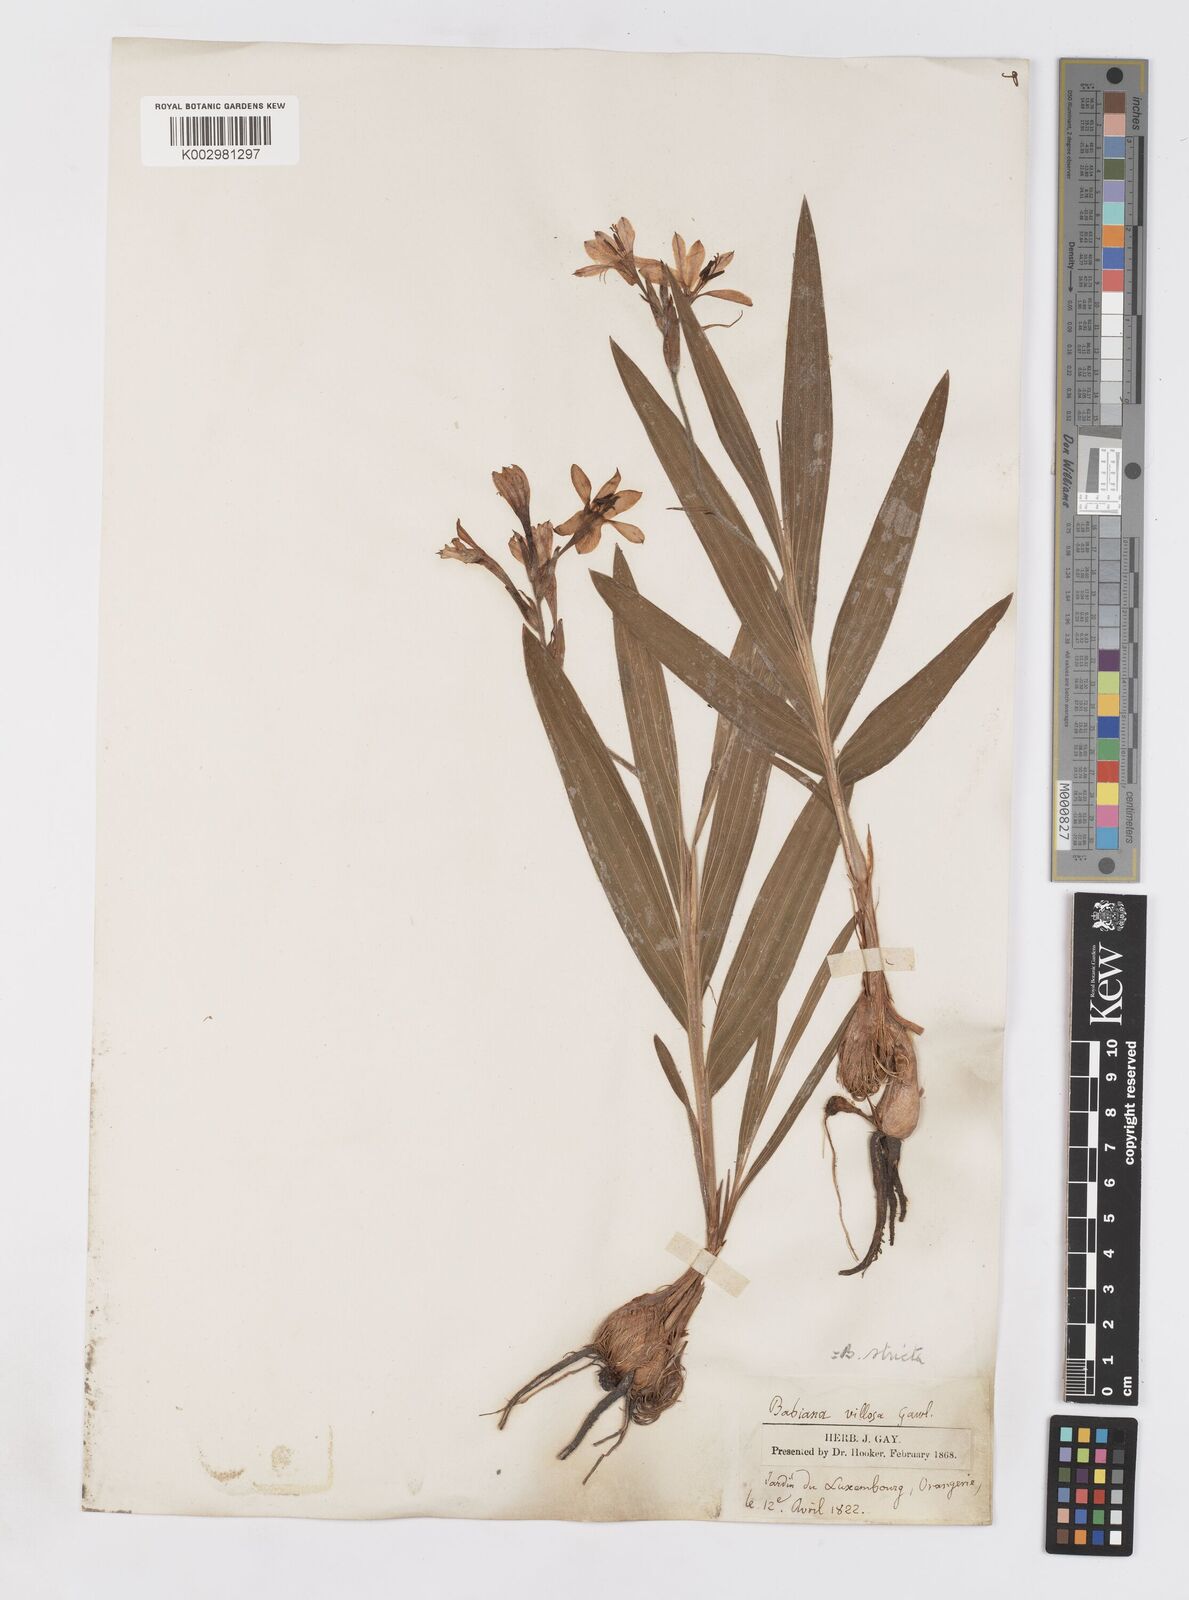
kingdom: Plantae
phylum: Tracheophyta
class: Liliopsida
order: Asparagales
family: Iridaceae
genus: Babiana
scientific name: Babiana nervosa
